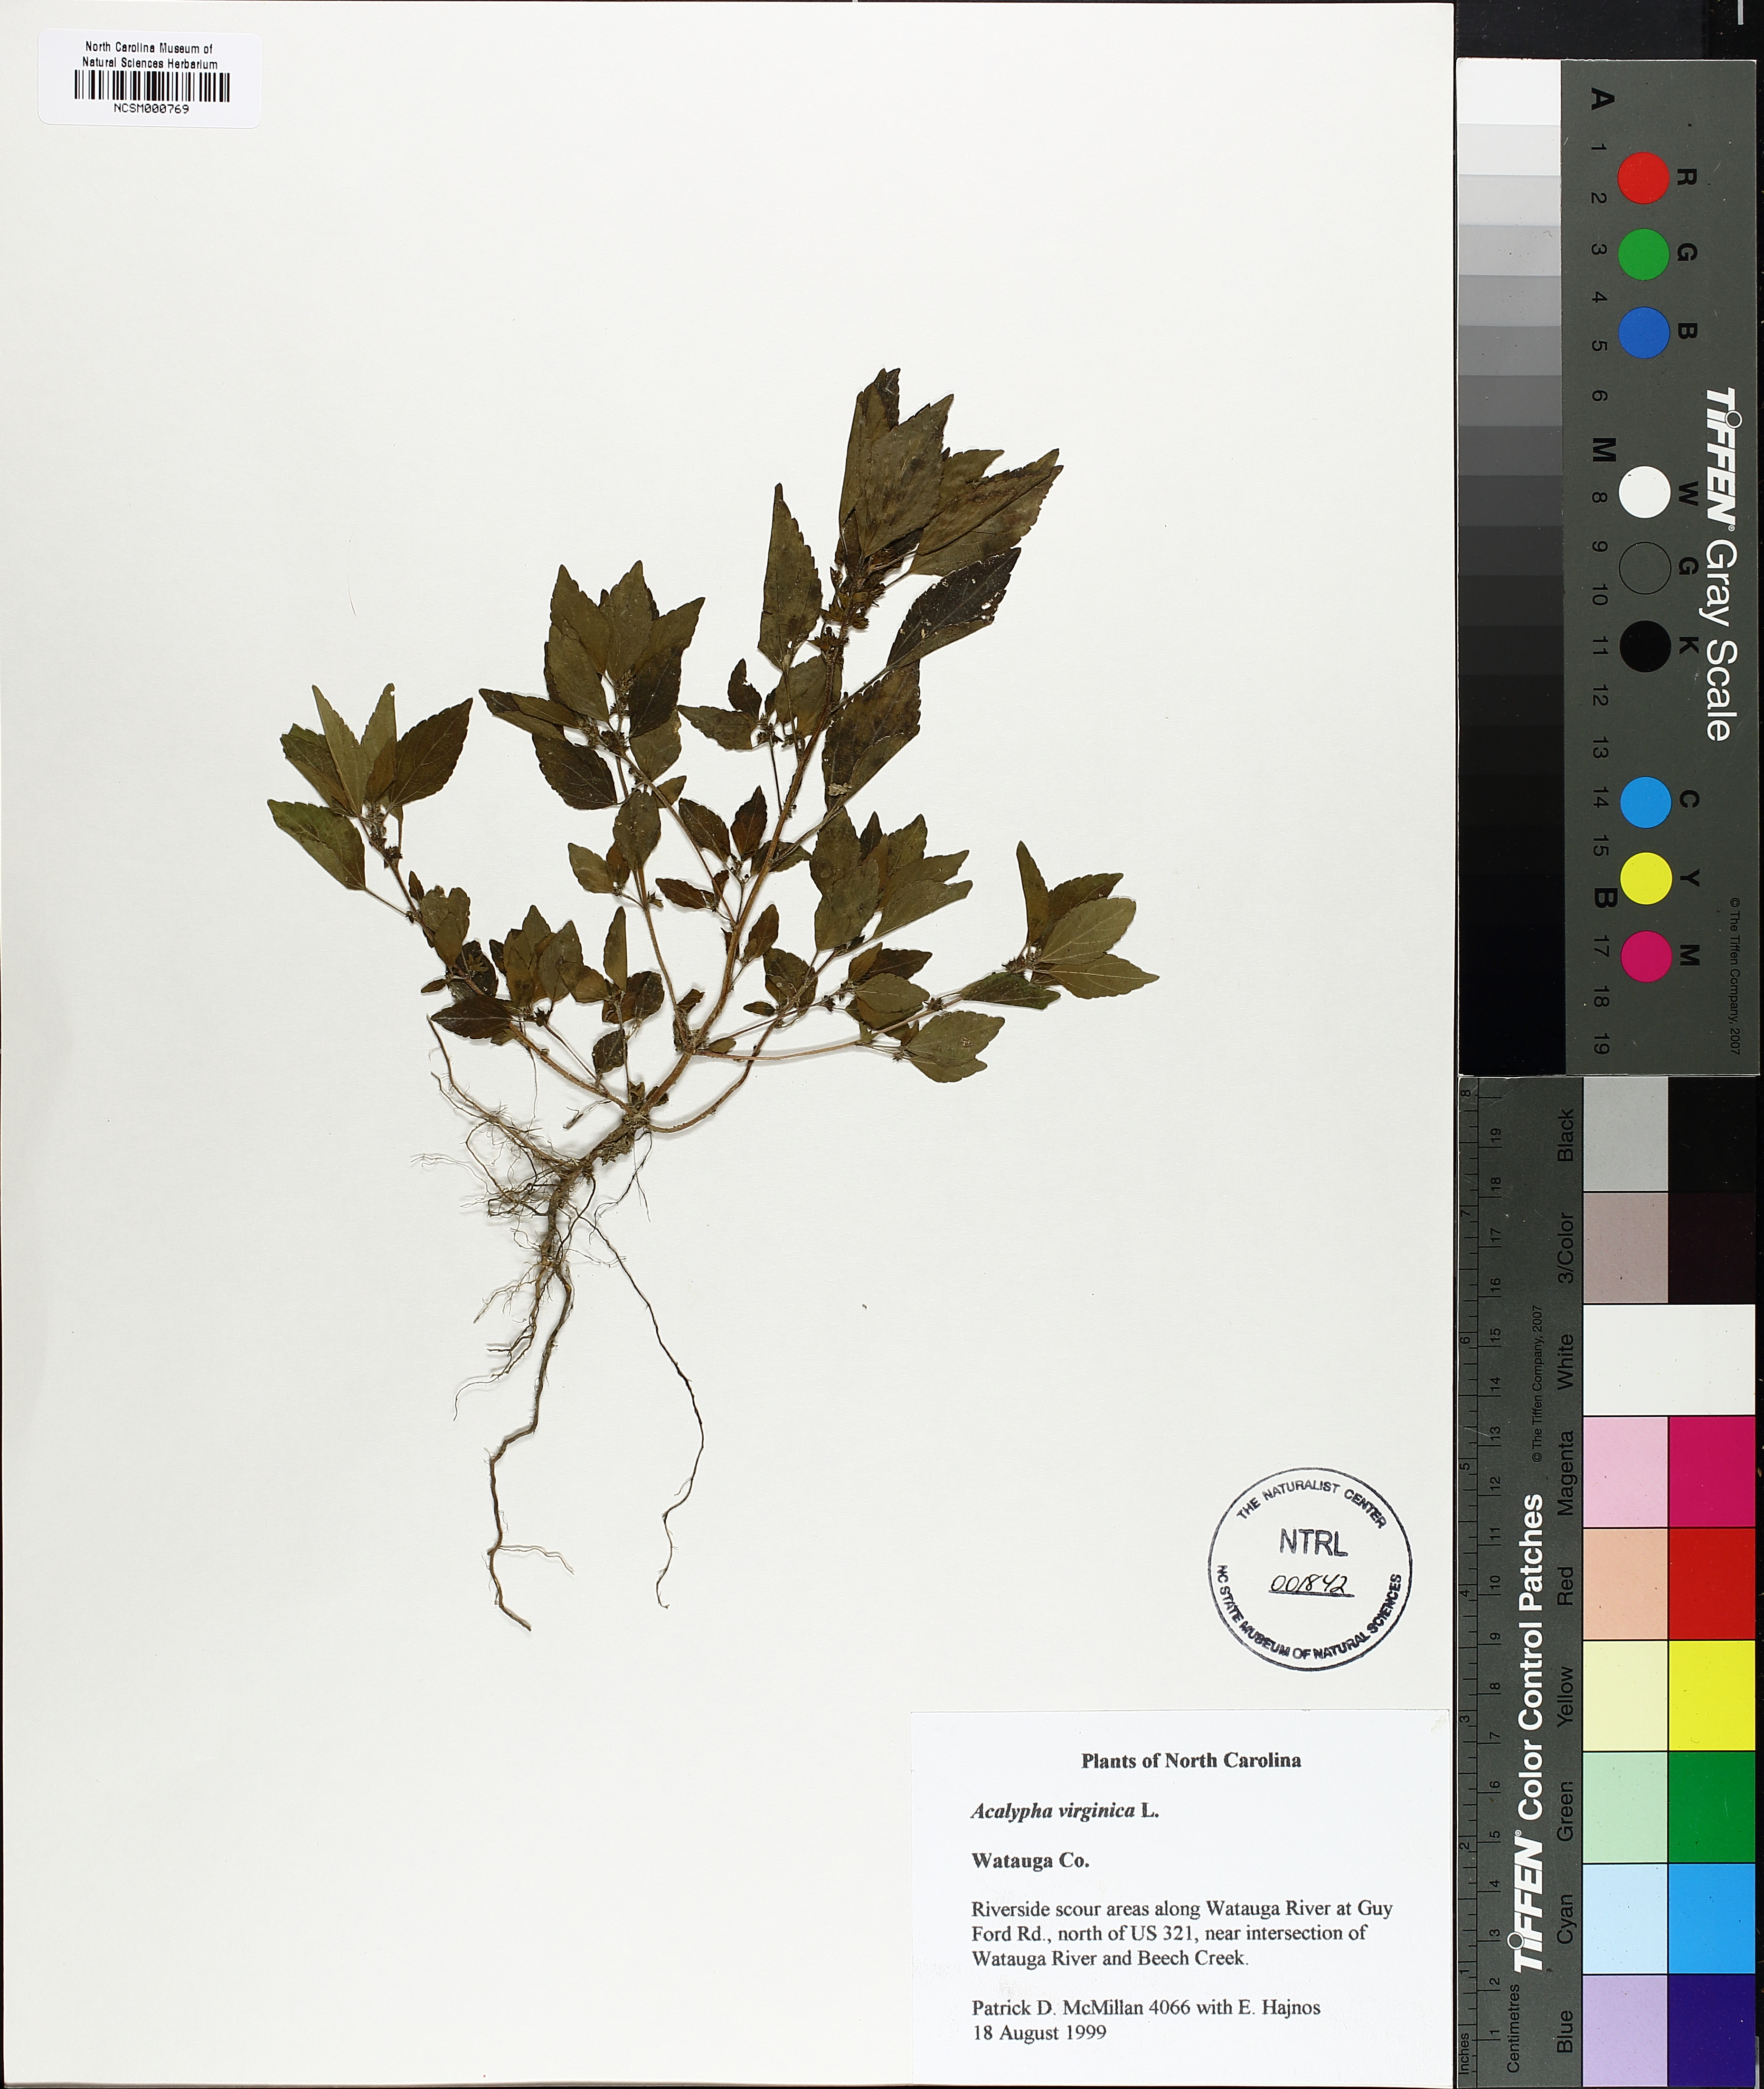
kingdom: Plantae
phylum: Tracheophyta
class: Magnoliopsida
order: Malpighiales
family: Euphorbiaceae
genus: Acalypha
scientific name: Acalypha virginica
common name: Virginia copperleaf
